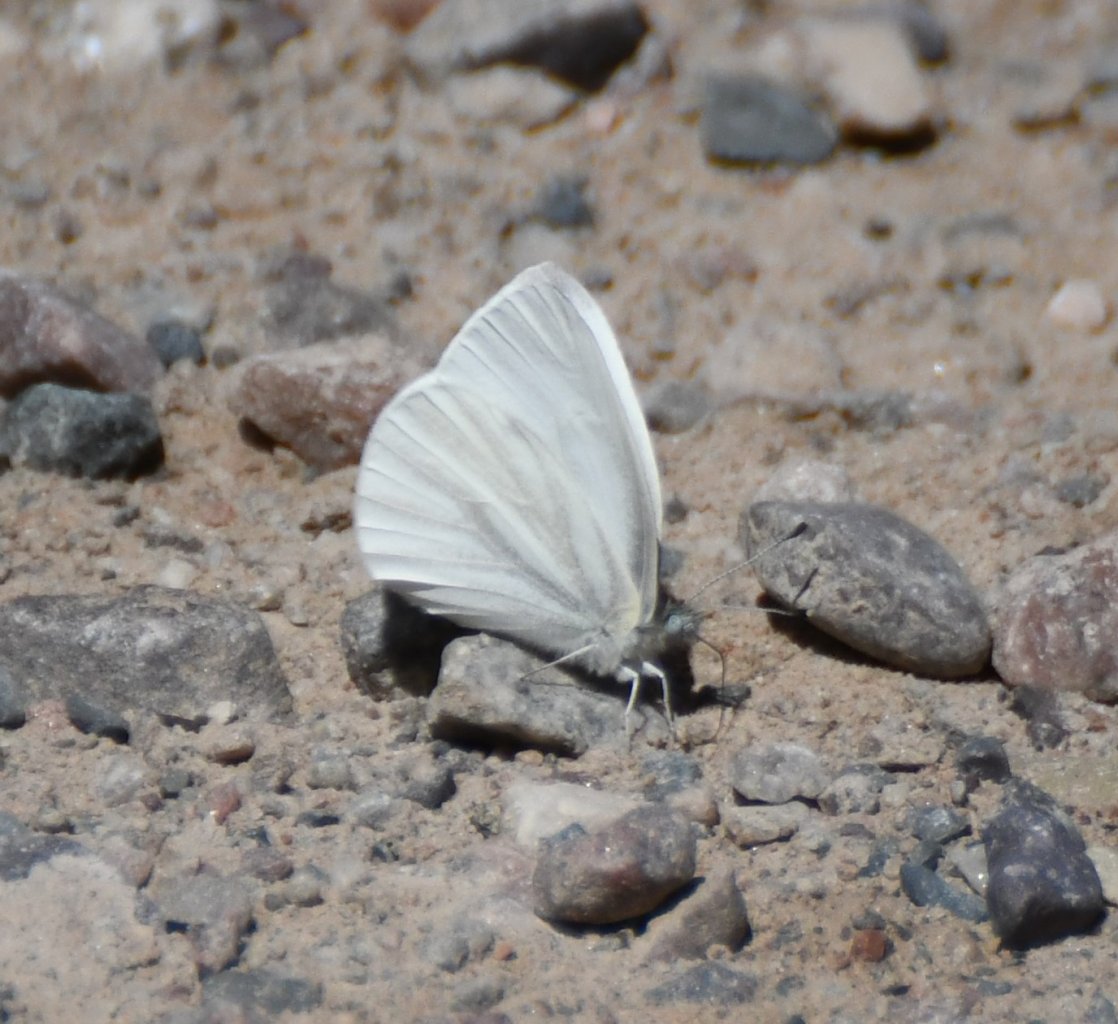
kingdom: Animalia
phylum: Arthropoda
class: Insecta
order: Lepidoptera
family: Pieridae
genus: Pieris
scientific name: Pieris virginiensis
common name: West Virginia White
